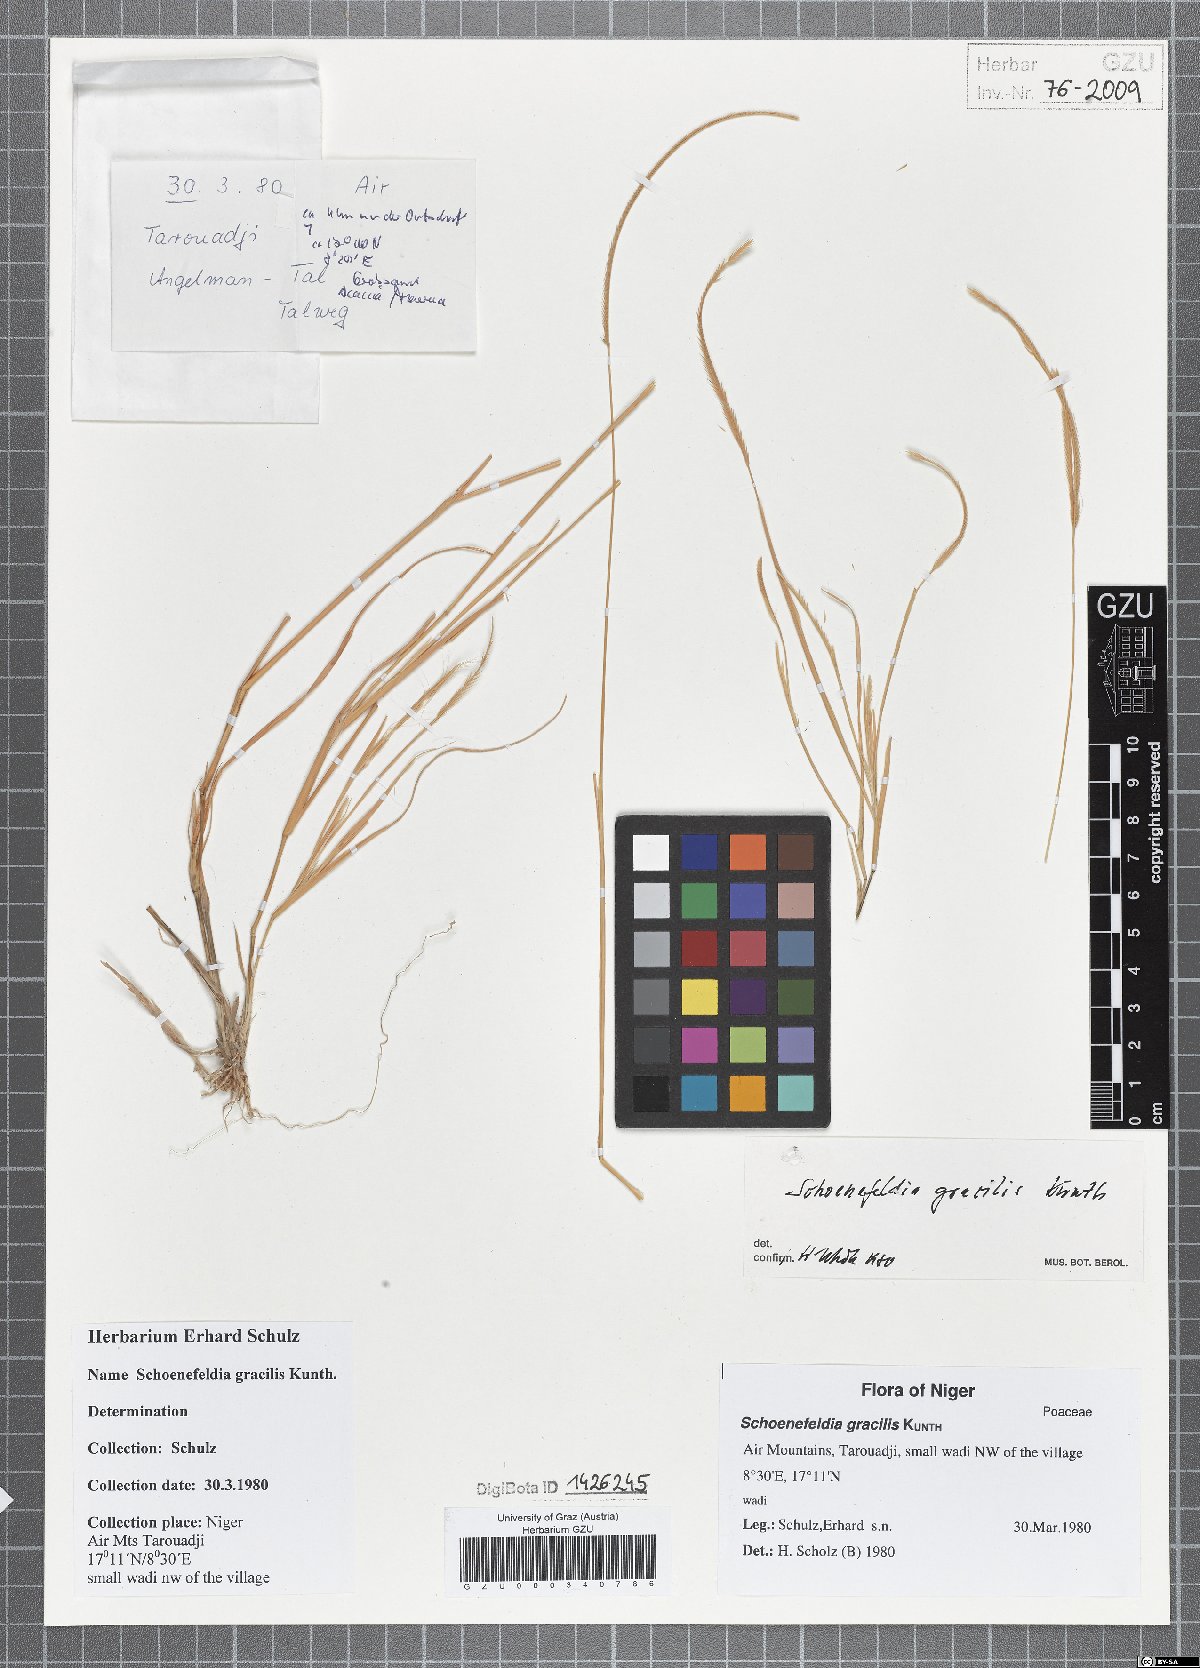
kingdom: Plantae
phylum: Tracheophyta
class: Liliopsida
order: Poales
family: Poaceae
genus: Schoenefeldia
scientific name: Schoenefeldia gracilis
